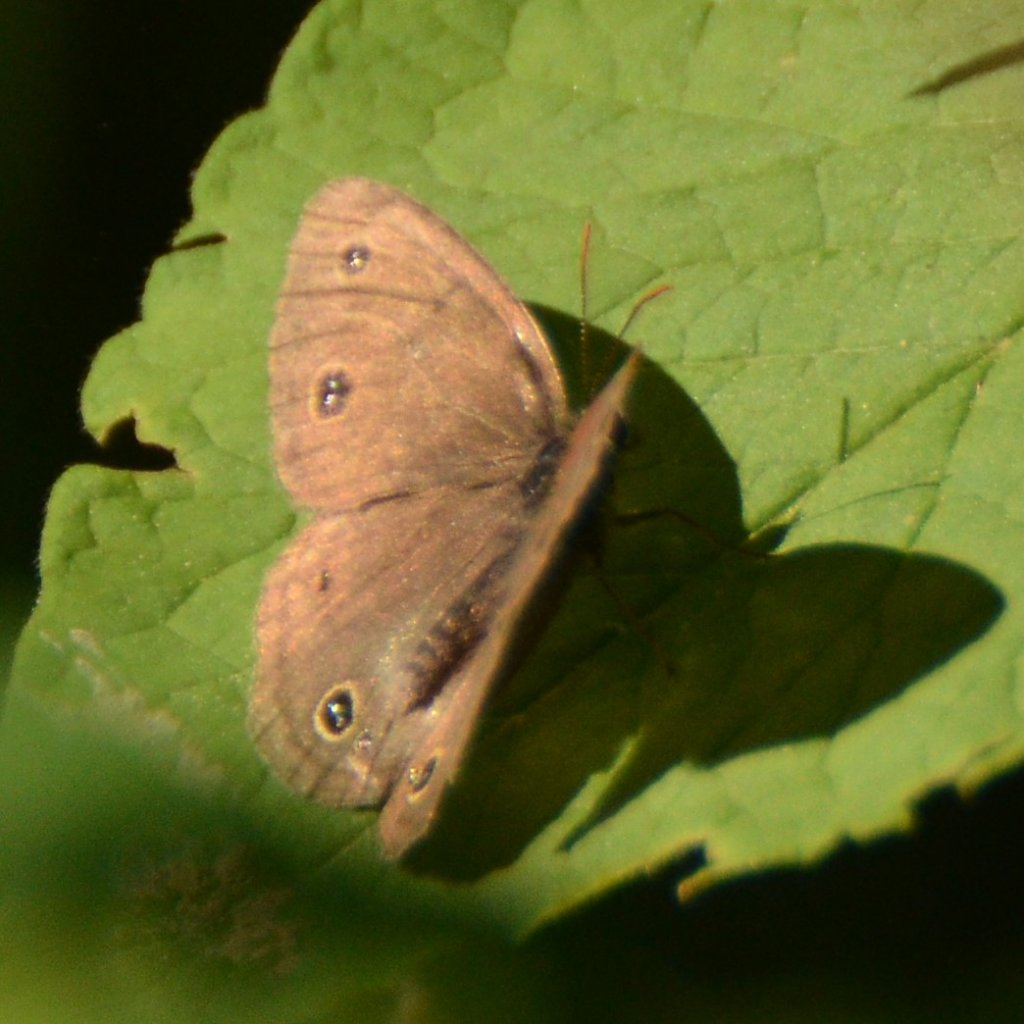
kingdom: Animalia
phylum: Arthropoda
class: Insecta
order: Lepidoptera
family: Nymphalidae
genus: Euptychia
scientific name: Euptychia cymela
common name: Little Wood Satyr
